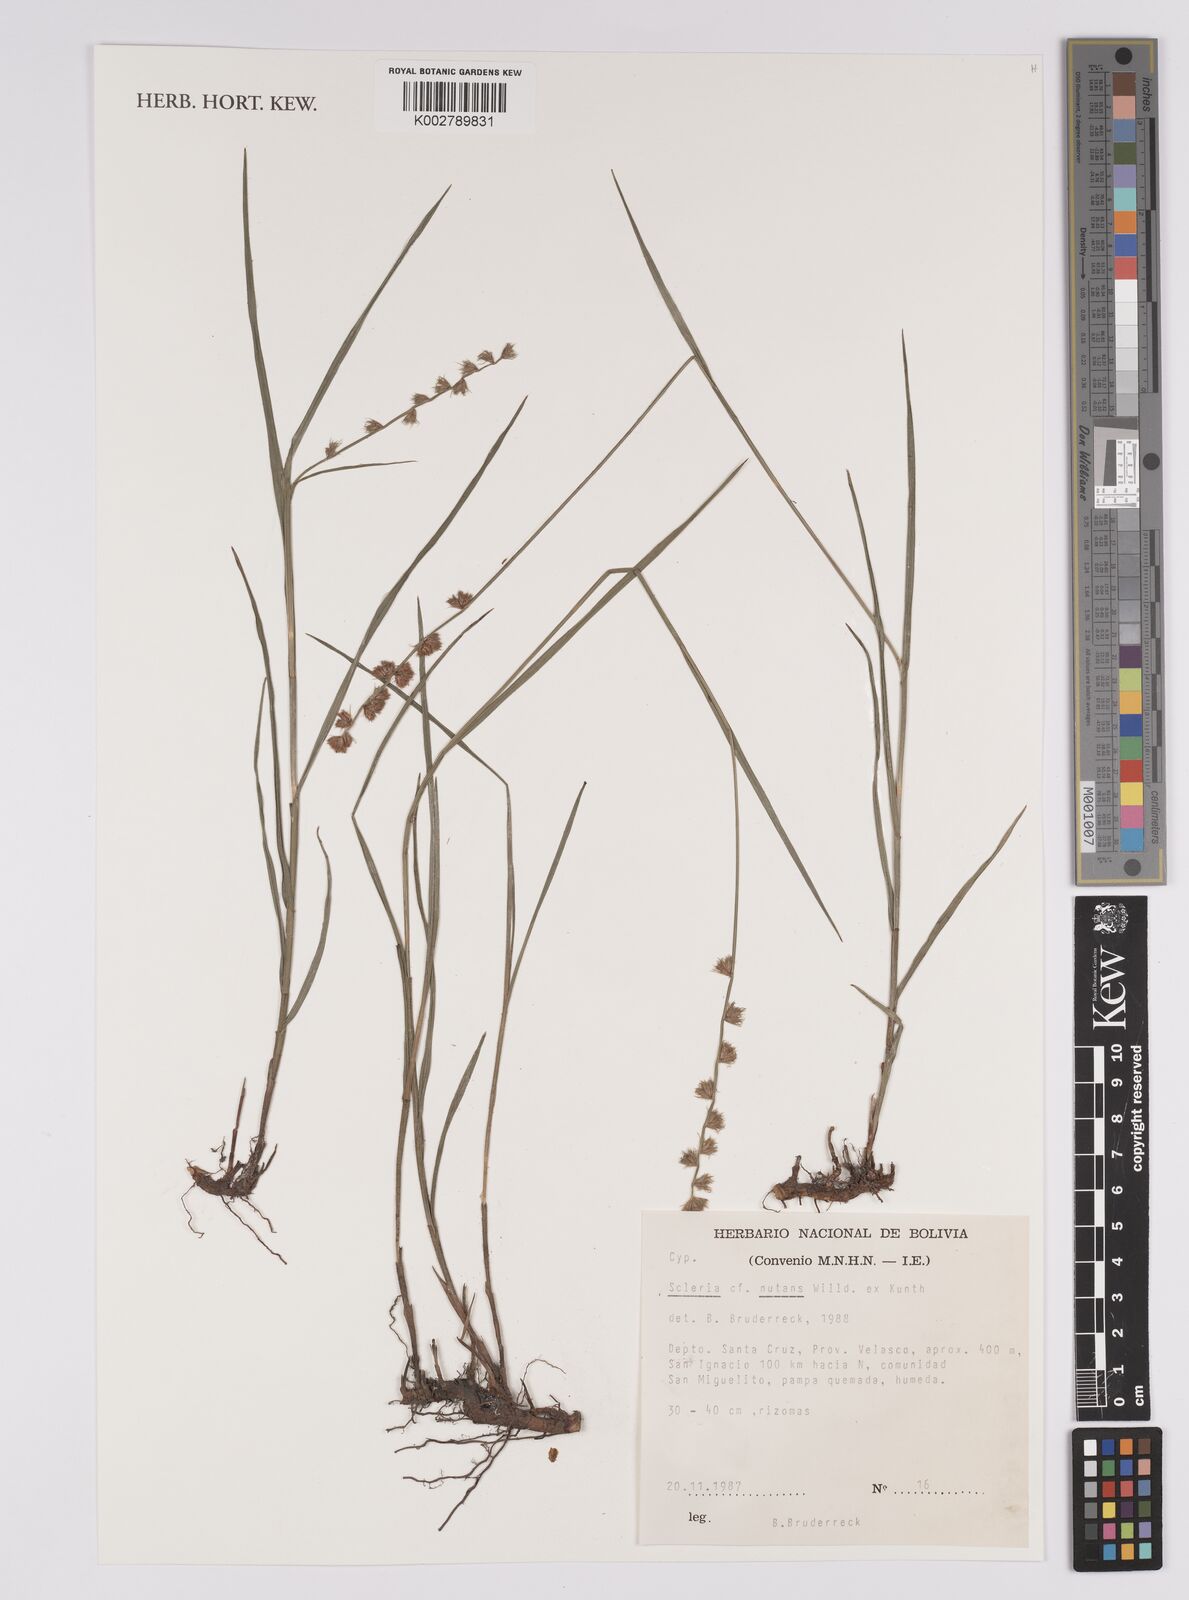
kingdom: Plantae
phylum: Tracheophyta
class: Liliopsida
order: Poales
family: Cyperaceae
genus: Scleria
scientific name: Scleria
